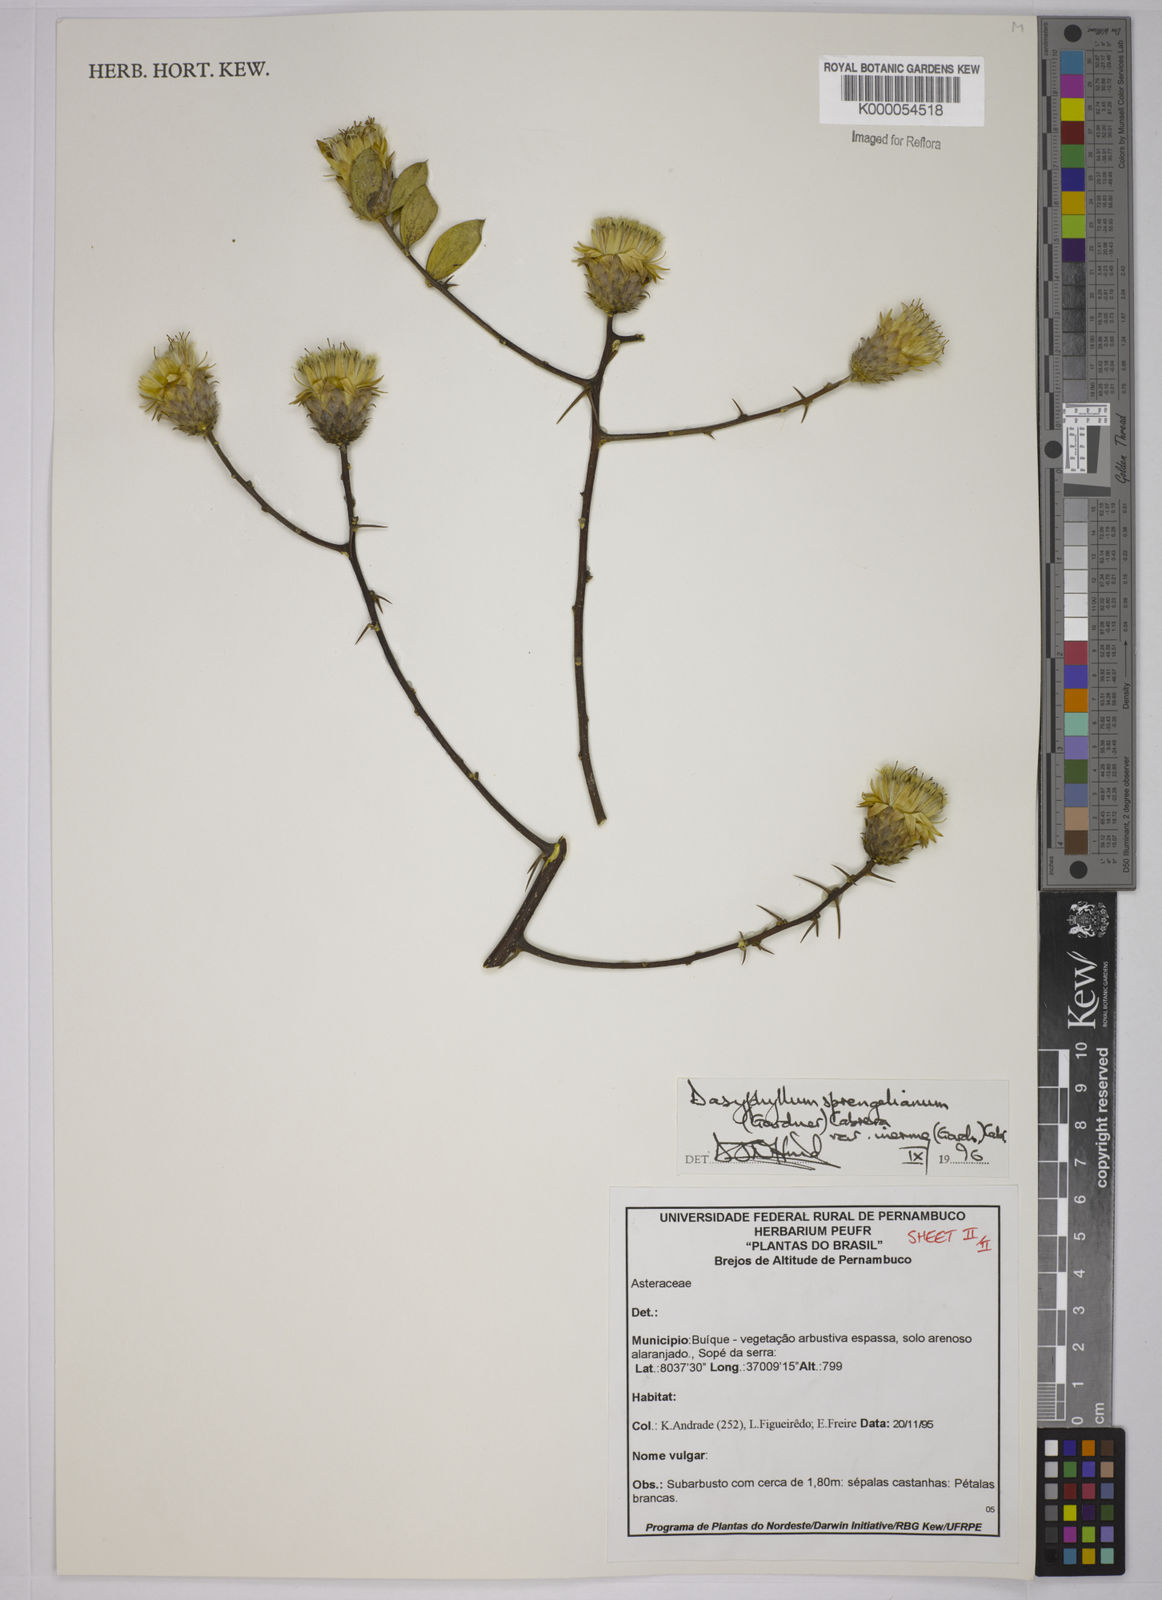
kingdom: Plantae
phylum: Tracheophyta
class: Magnoliopsida
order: Asterales
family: Asteraceae
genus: Dasyphyllum
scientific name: Dasyphyllum sprengelianum
